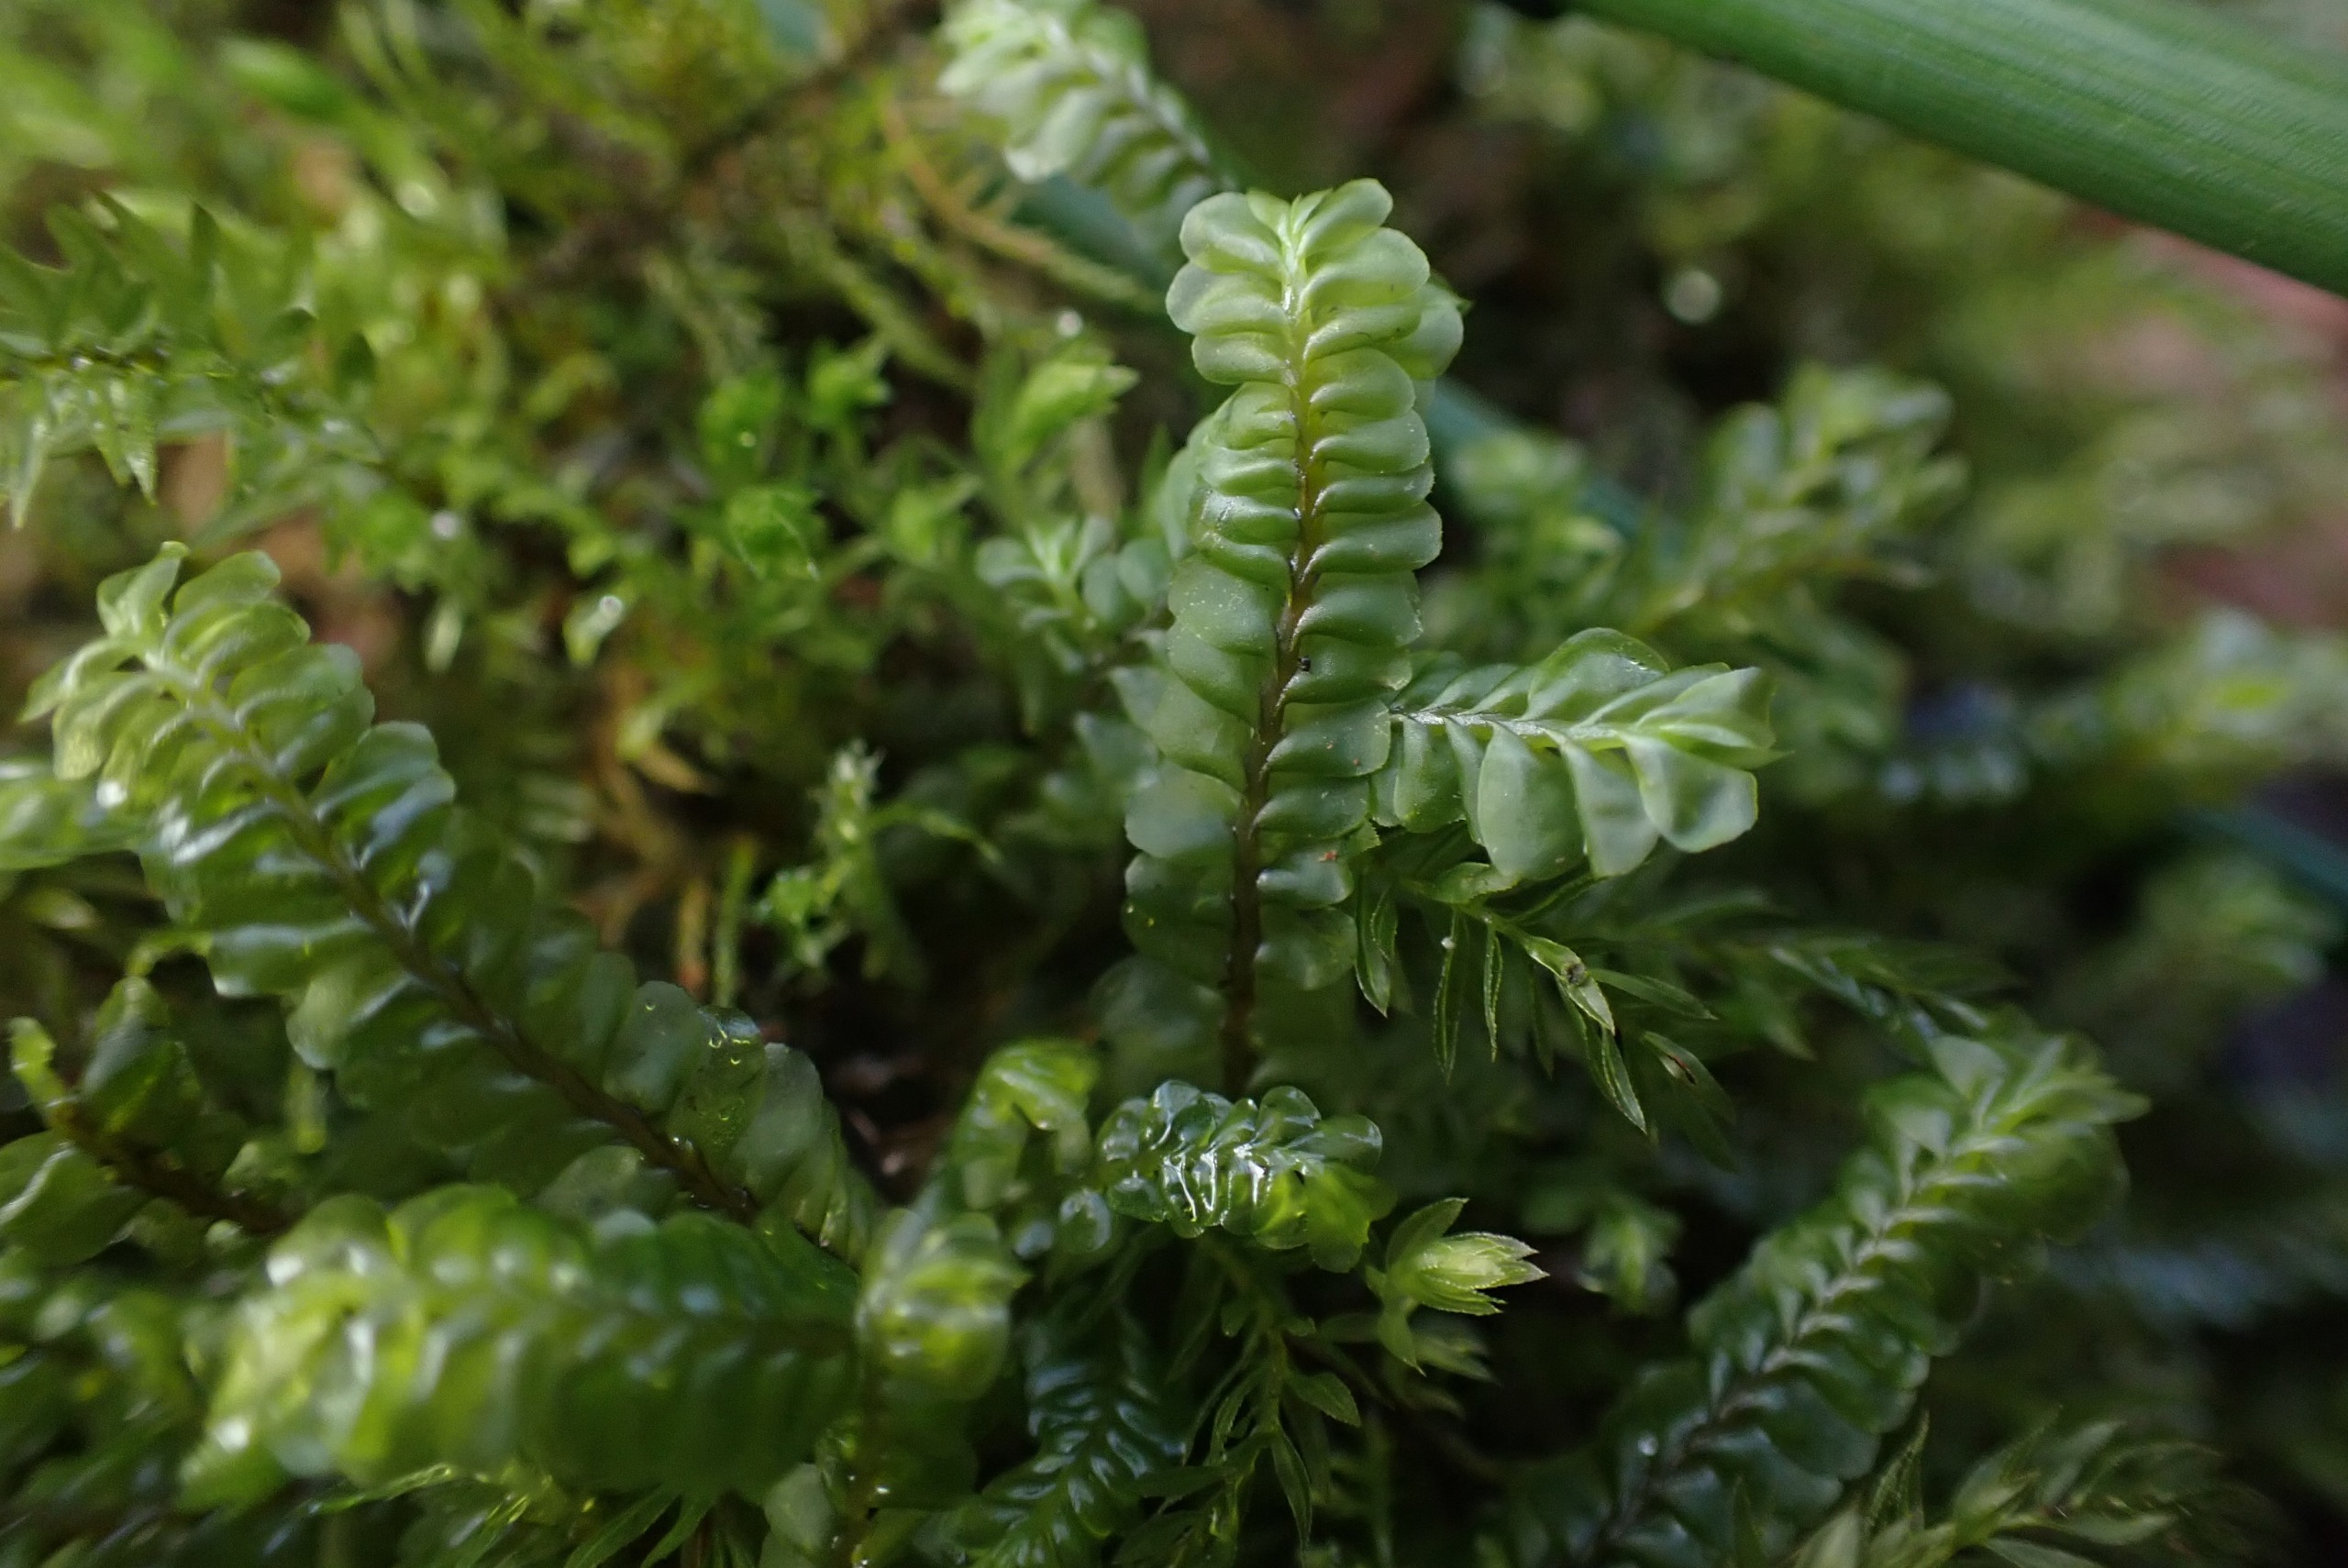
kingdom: Plantae
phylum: Marchantiophyta
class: Jungermanniopsida
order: Jungermanniales
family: Plagiochilaceae
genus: Plagiochila
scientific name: Plagiochila asplenioides
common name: Radeløv-hindeblad
